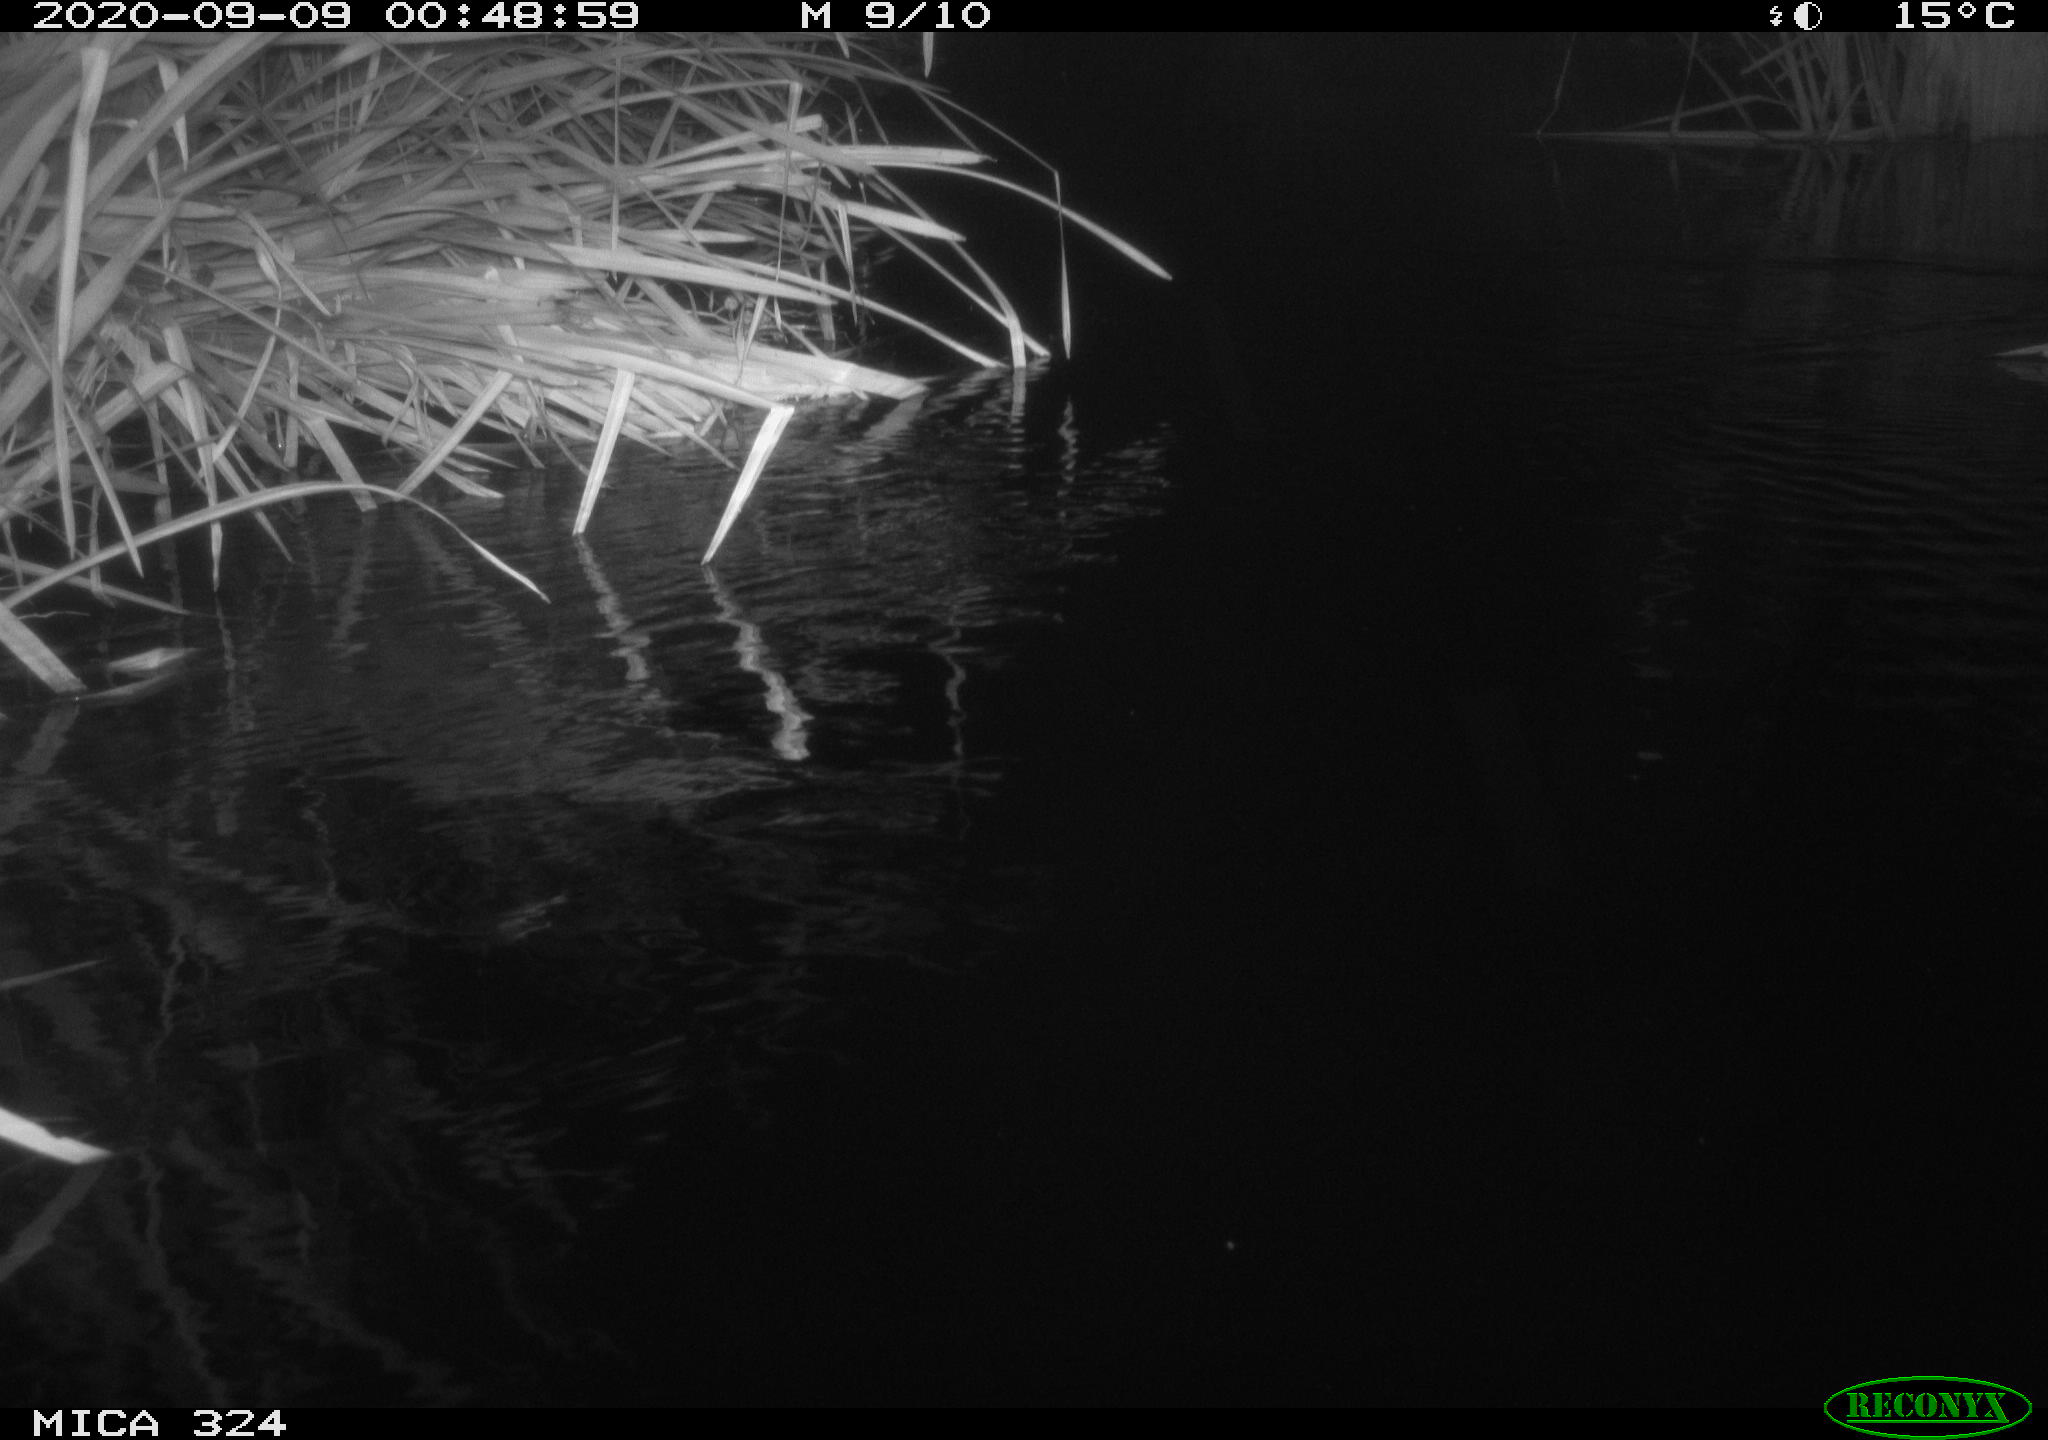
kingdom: Animalia
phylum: Chordata
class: Mammalia
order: Rodentia
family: Cricetidae
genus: Ondatra
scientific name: Ondatra zibethicus
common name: Muskrat
